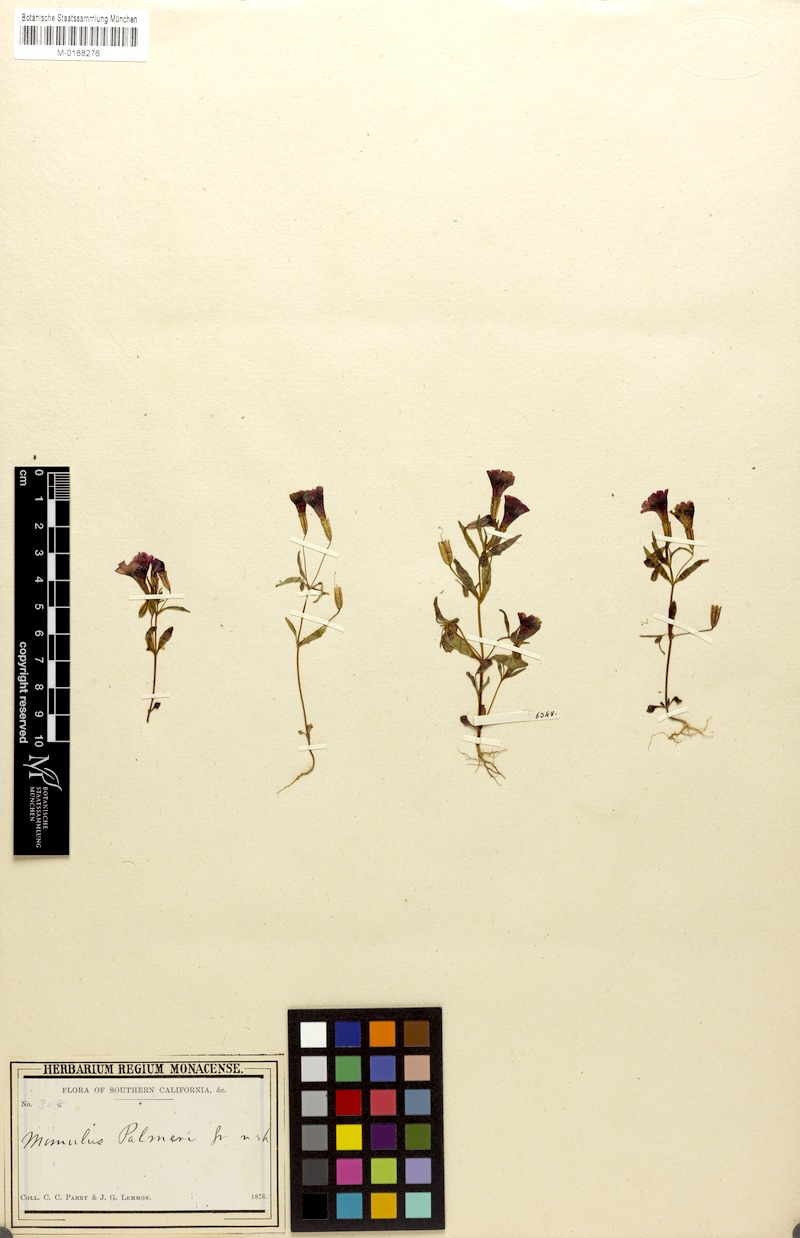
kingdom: Plantae
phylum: Tracheophyta
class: Magnoliopsida
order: Lamiales
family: Phrymaceae
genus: Erythranthe
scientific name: Erythranthe palmeri
